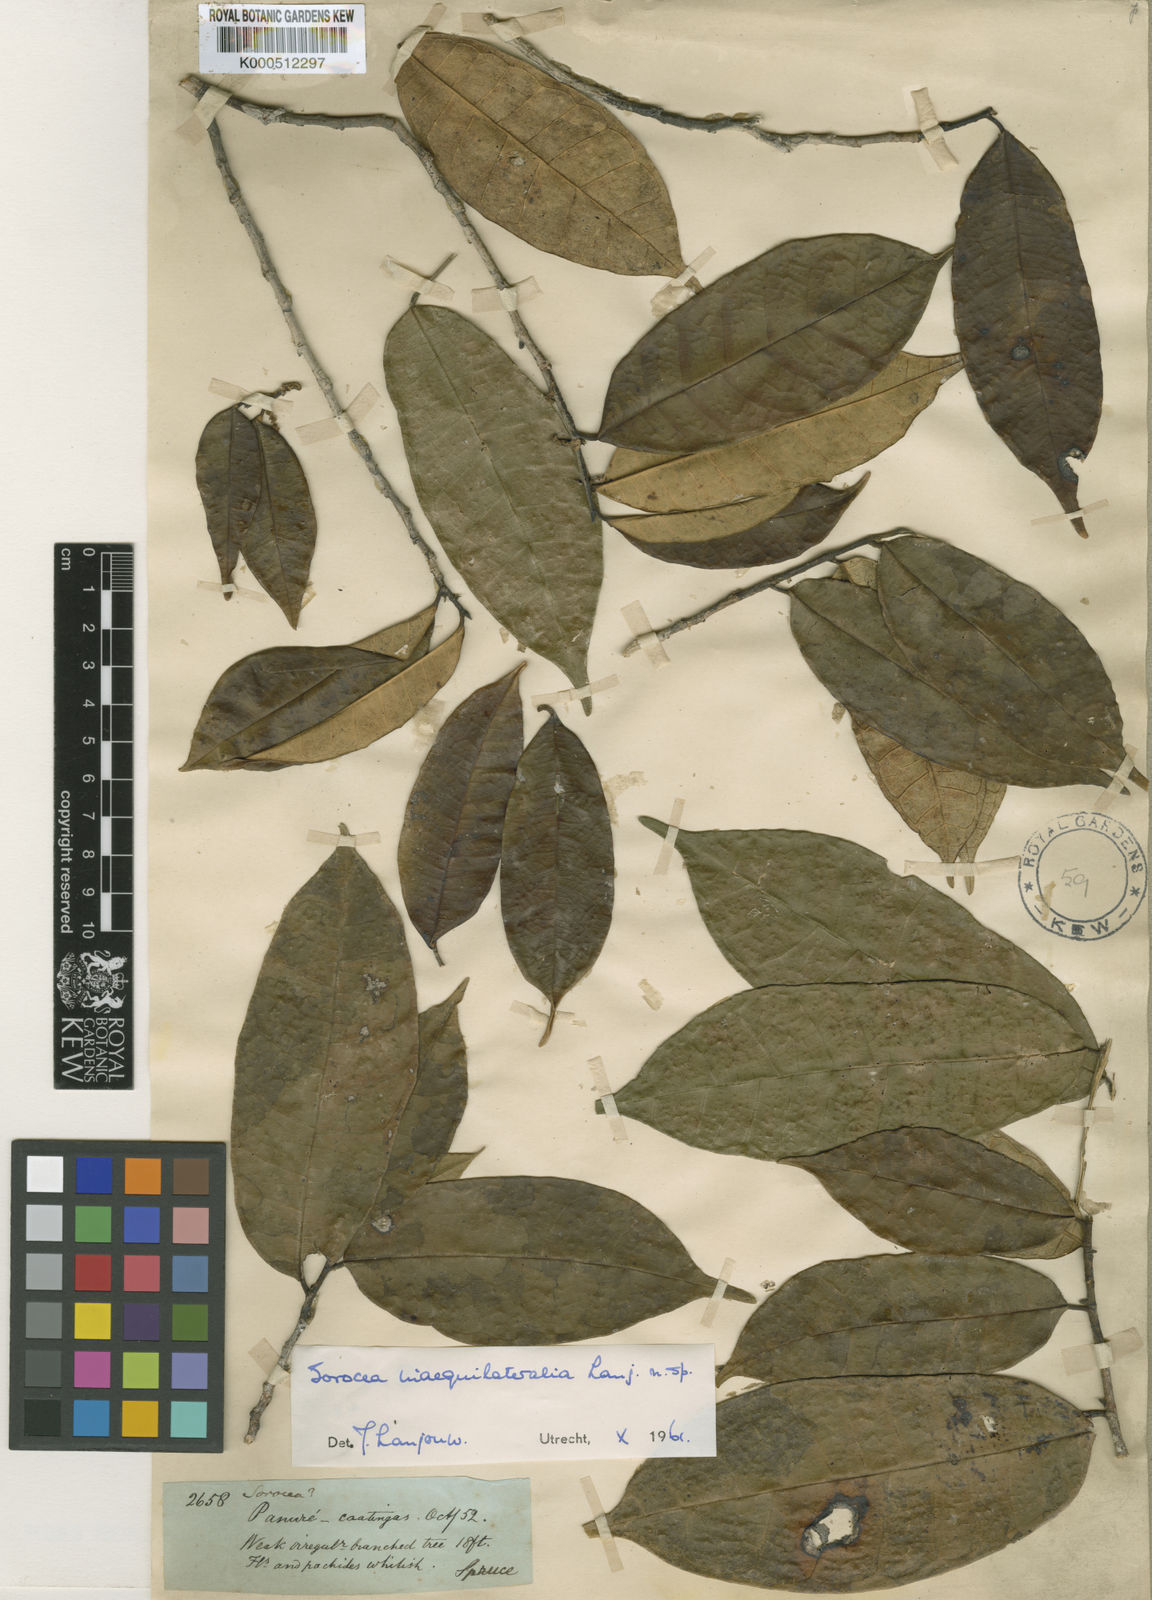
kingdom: Plantae
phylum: Tracheophyta
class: Magnoliopsida
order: Rosales
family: Moraceae
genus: Sorocea
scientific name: Sorocea
